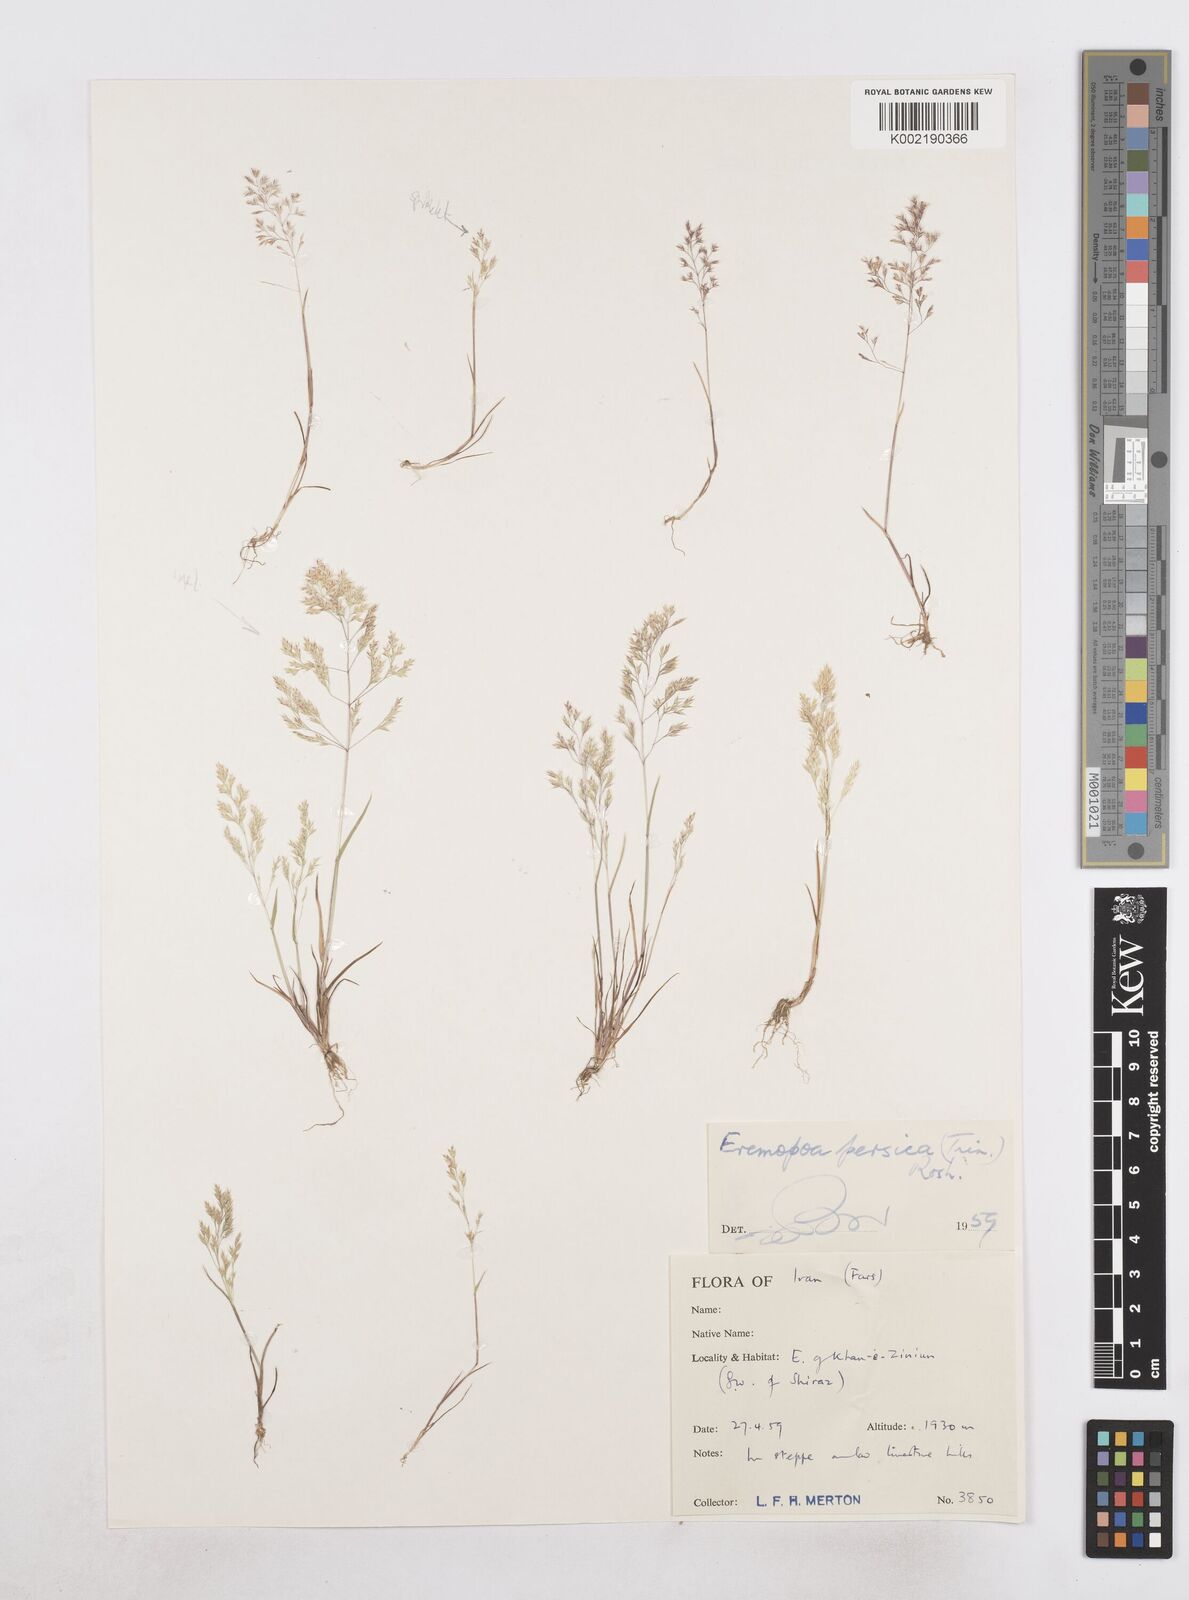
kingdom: Plantae
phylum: Tracheophyta
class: Liliopsida
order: Poales
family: Poaceae
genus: Poa
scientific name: Poa persica
